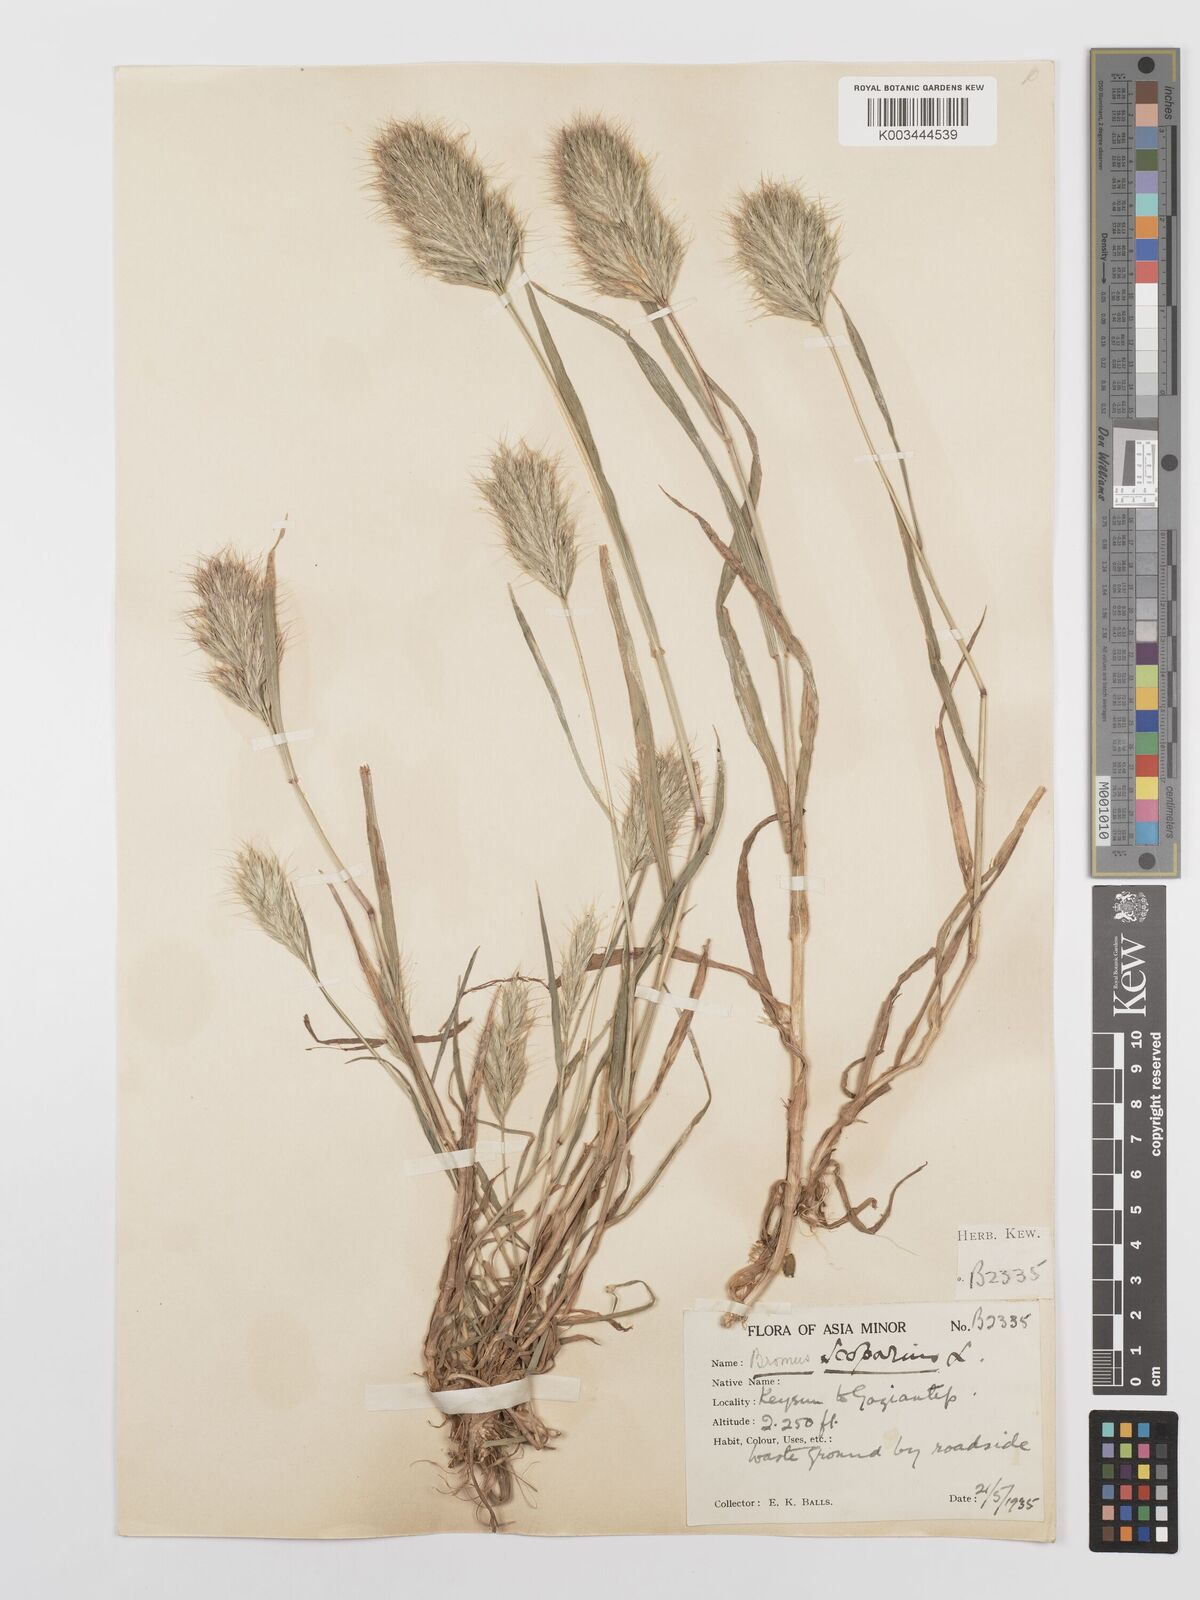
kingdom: Plantae
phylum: Tracheophyta
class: Liliopsida
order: Poales
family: Poaceae
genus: Bromus
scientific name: Bromus scoparius
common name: Broom brome
